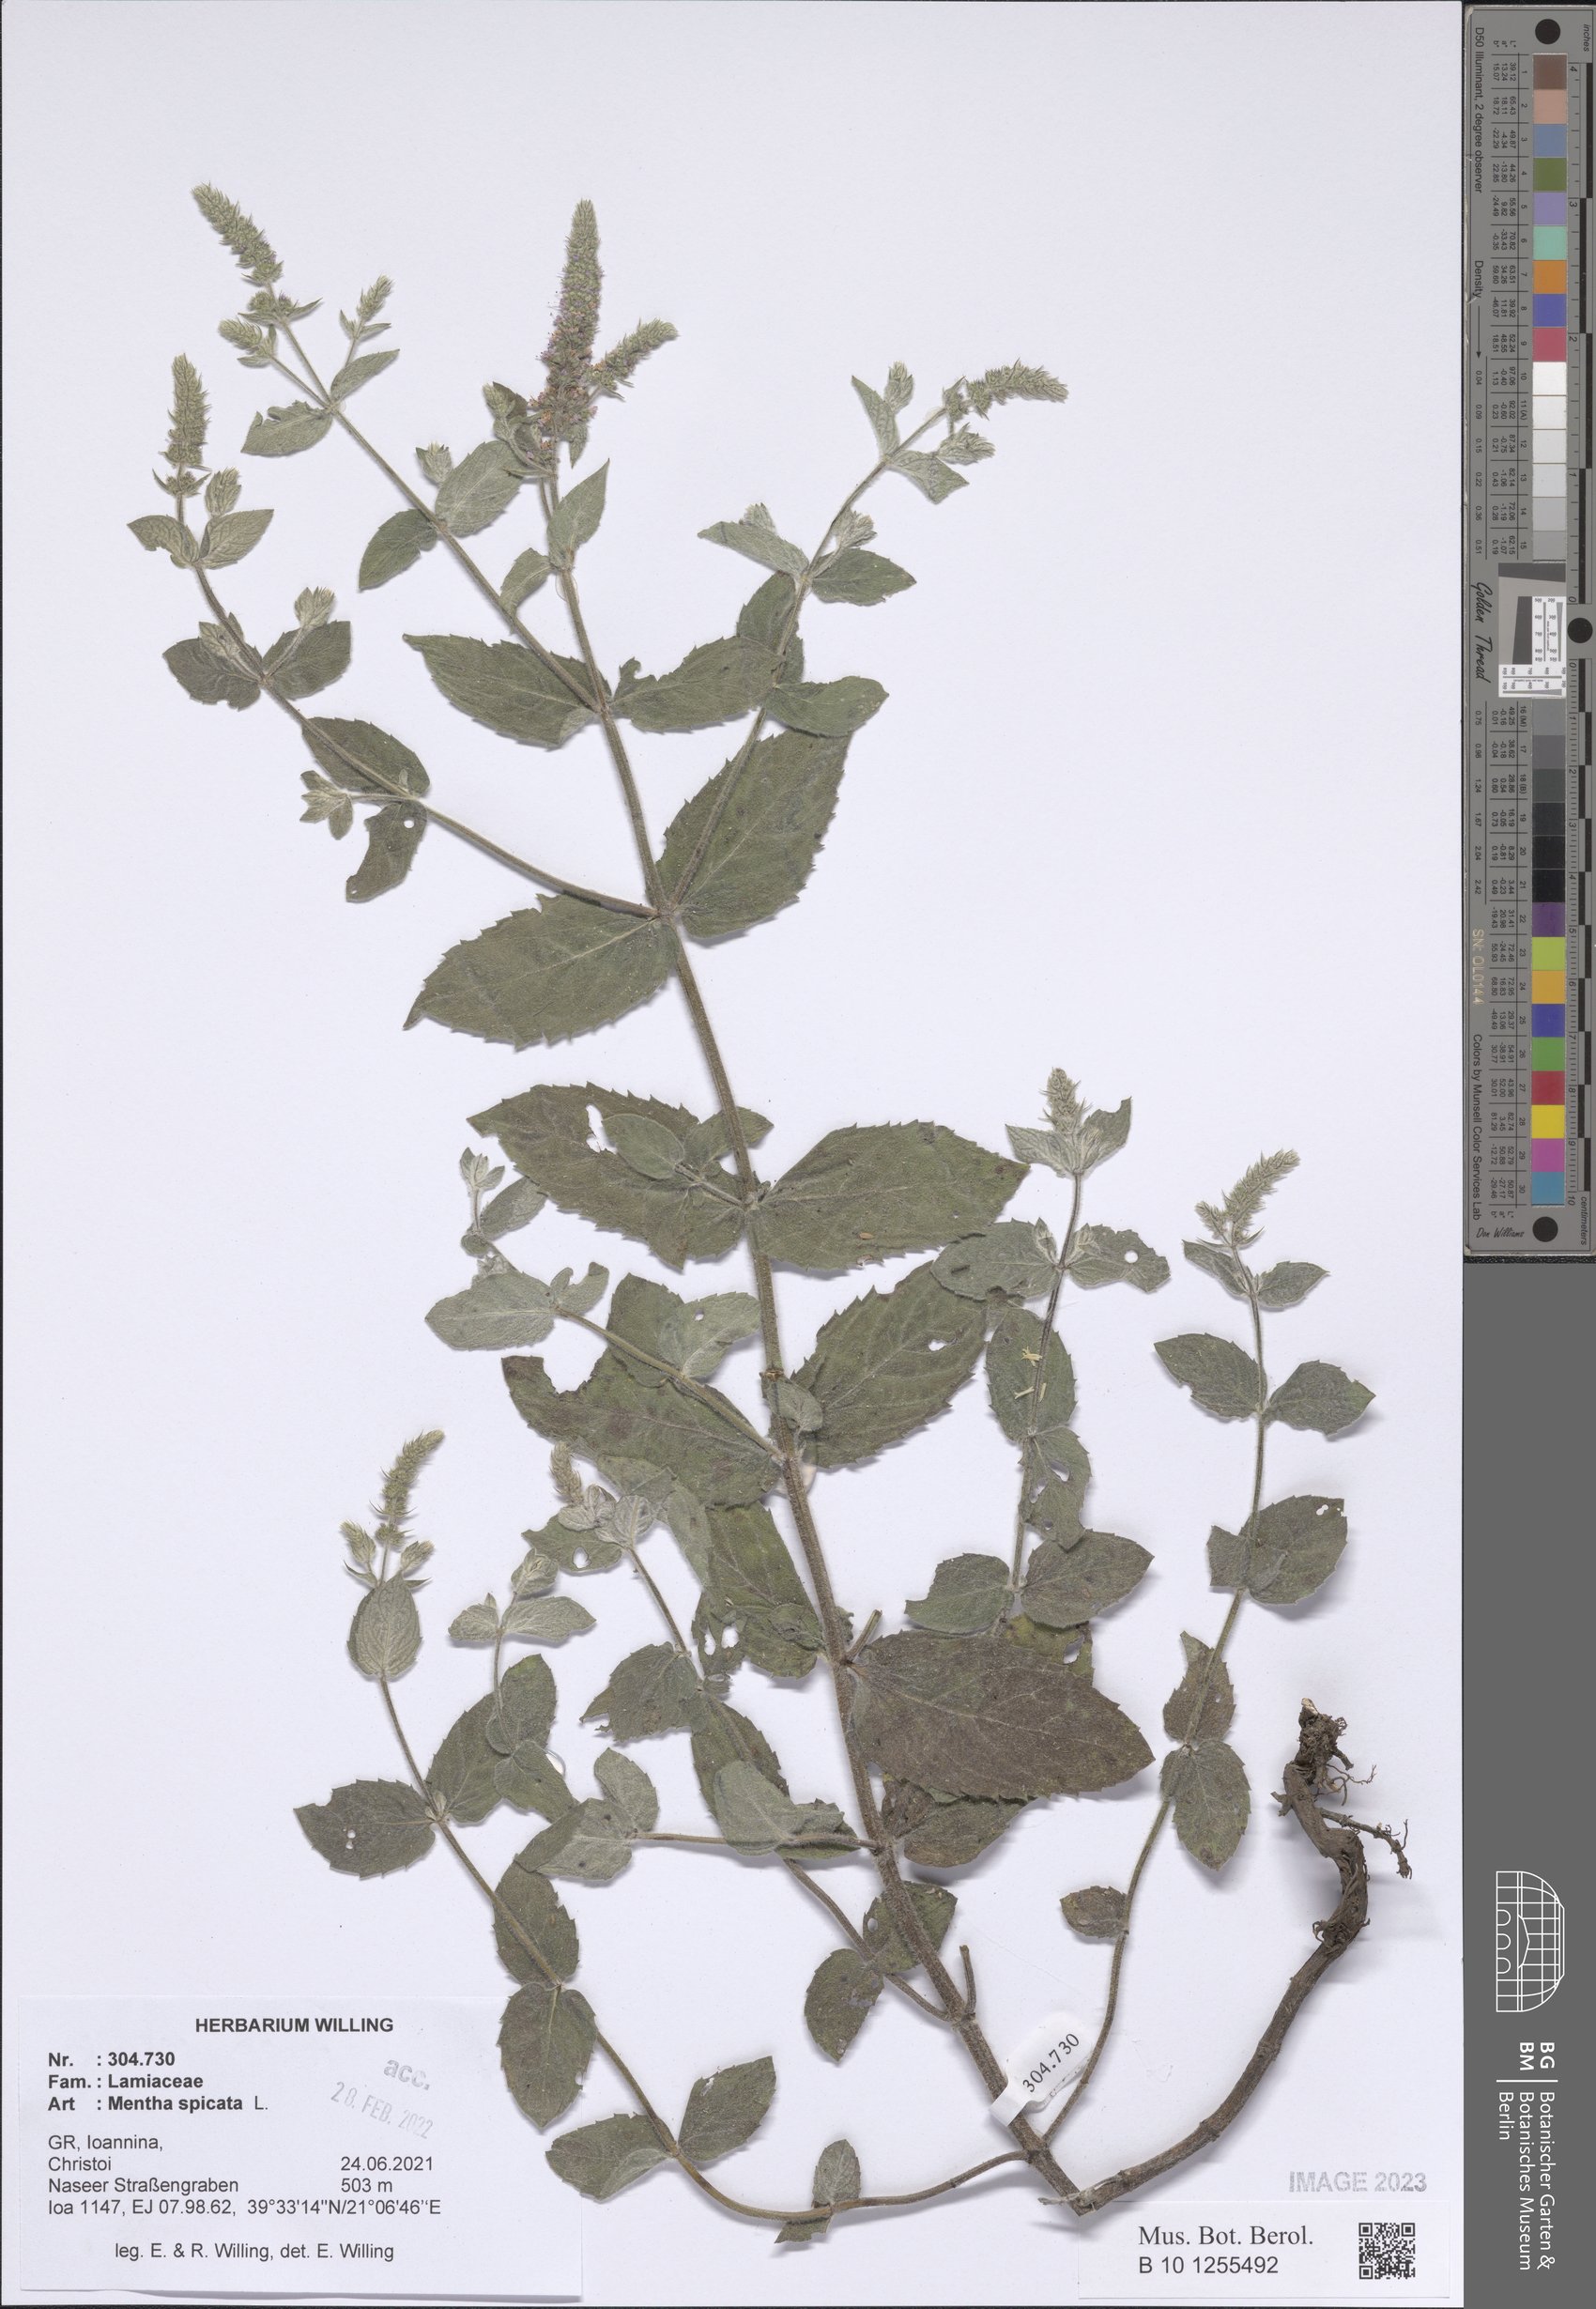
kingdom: Plantae
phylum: Tracheophyta
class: Magnoliopsida
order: Lamiales
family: Lamiaceae
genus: Mentha
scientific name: Mentha spicata
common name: Spearmint
